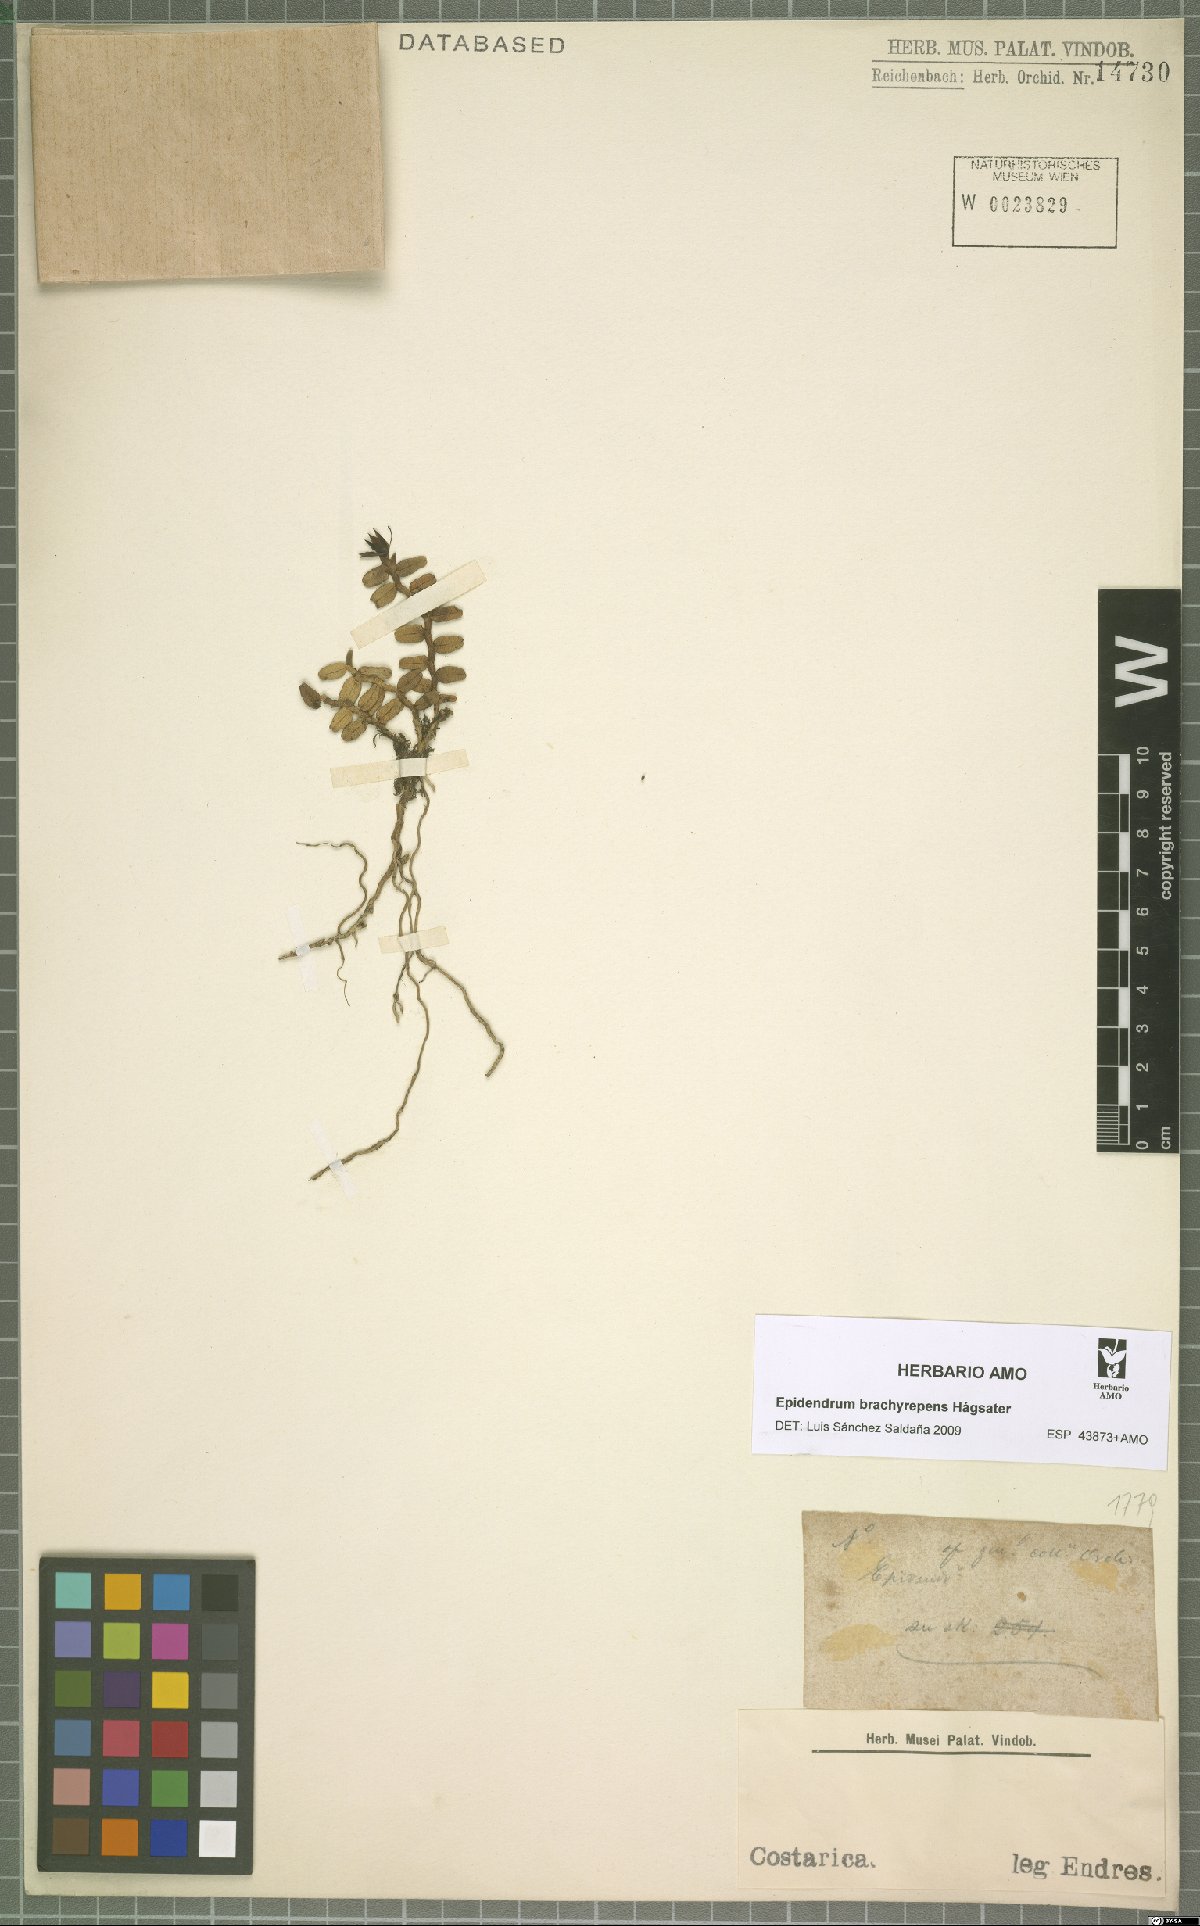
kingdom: Plantae
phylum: Tracheophyta
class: Liliopsida
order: Asparagales
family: Orchidaceae
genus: Epidendrum
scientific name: Epidendrum brachyrepens
